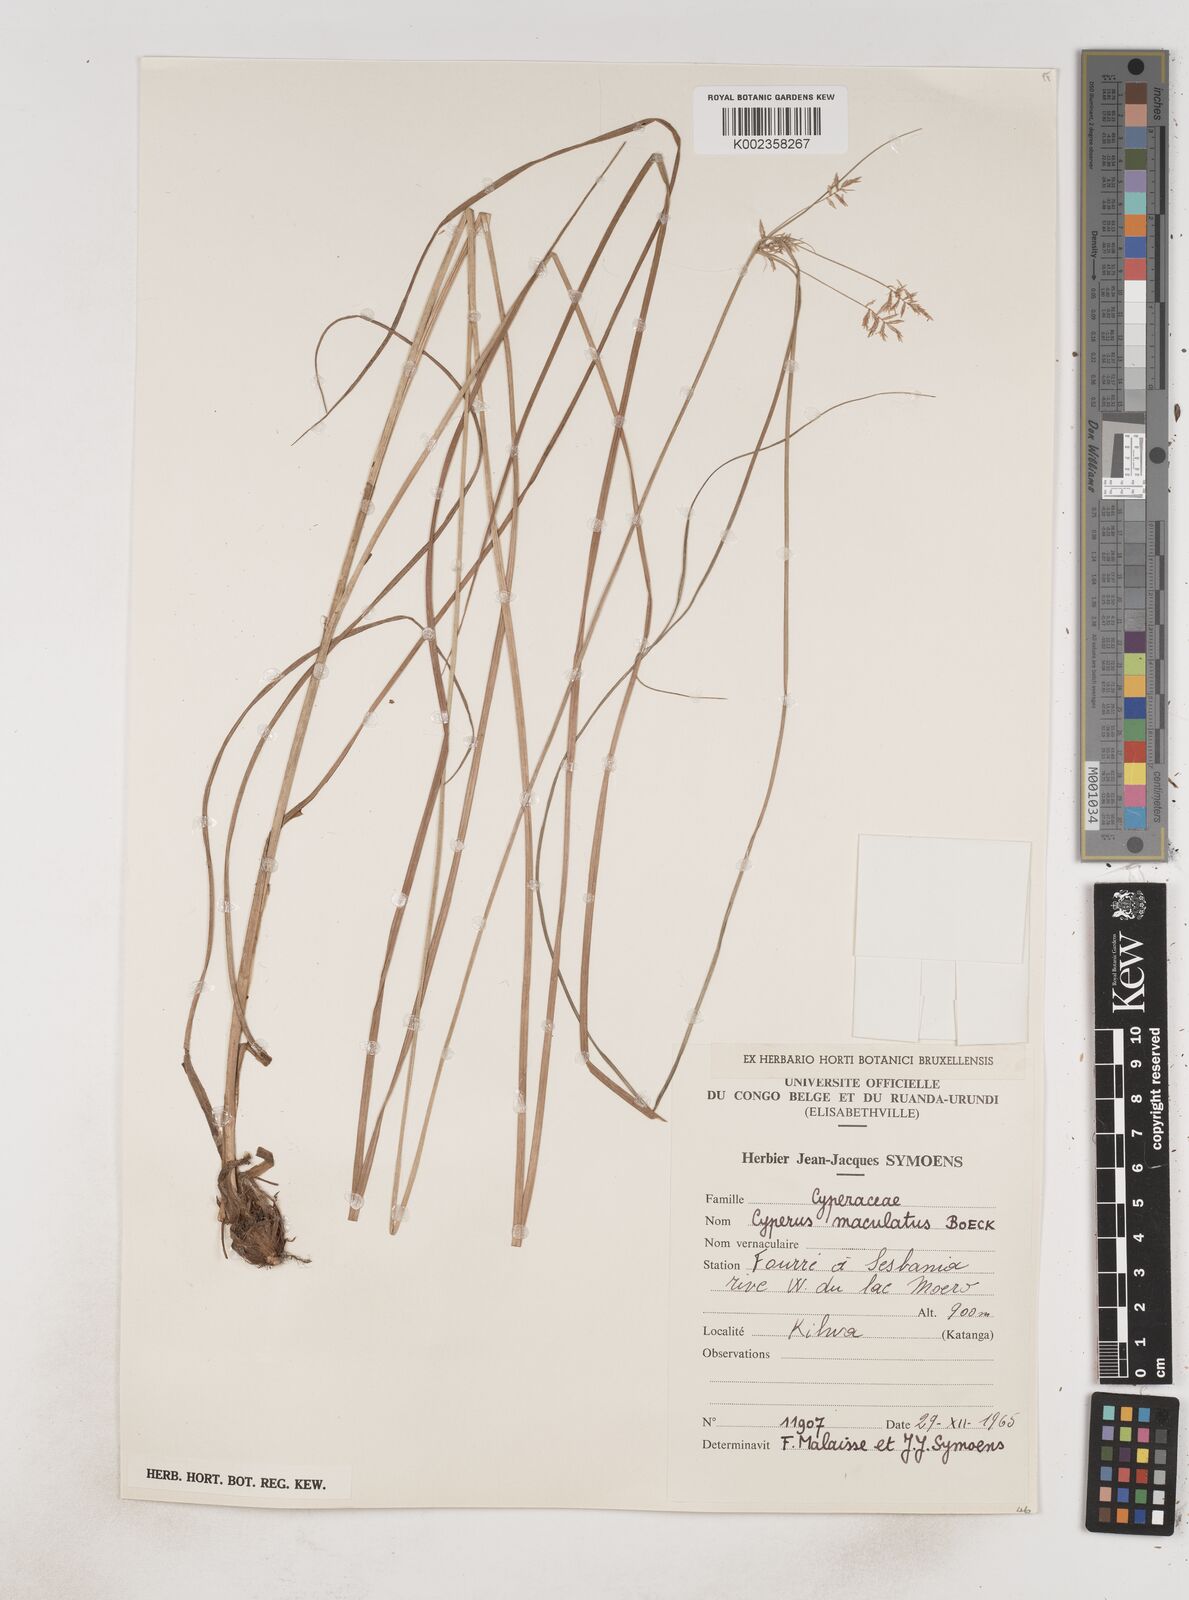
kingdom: Plantae
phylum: Tracheophyta
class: Liliopsida
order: Poales
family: Cyperaceae
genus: Cyperus
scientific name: Cyperus maculatus
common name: Maculated sedge
